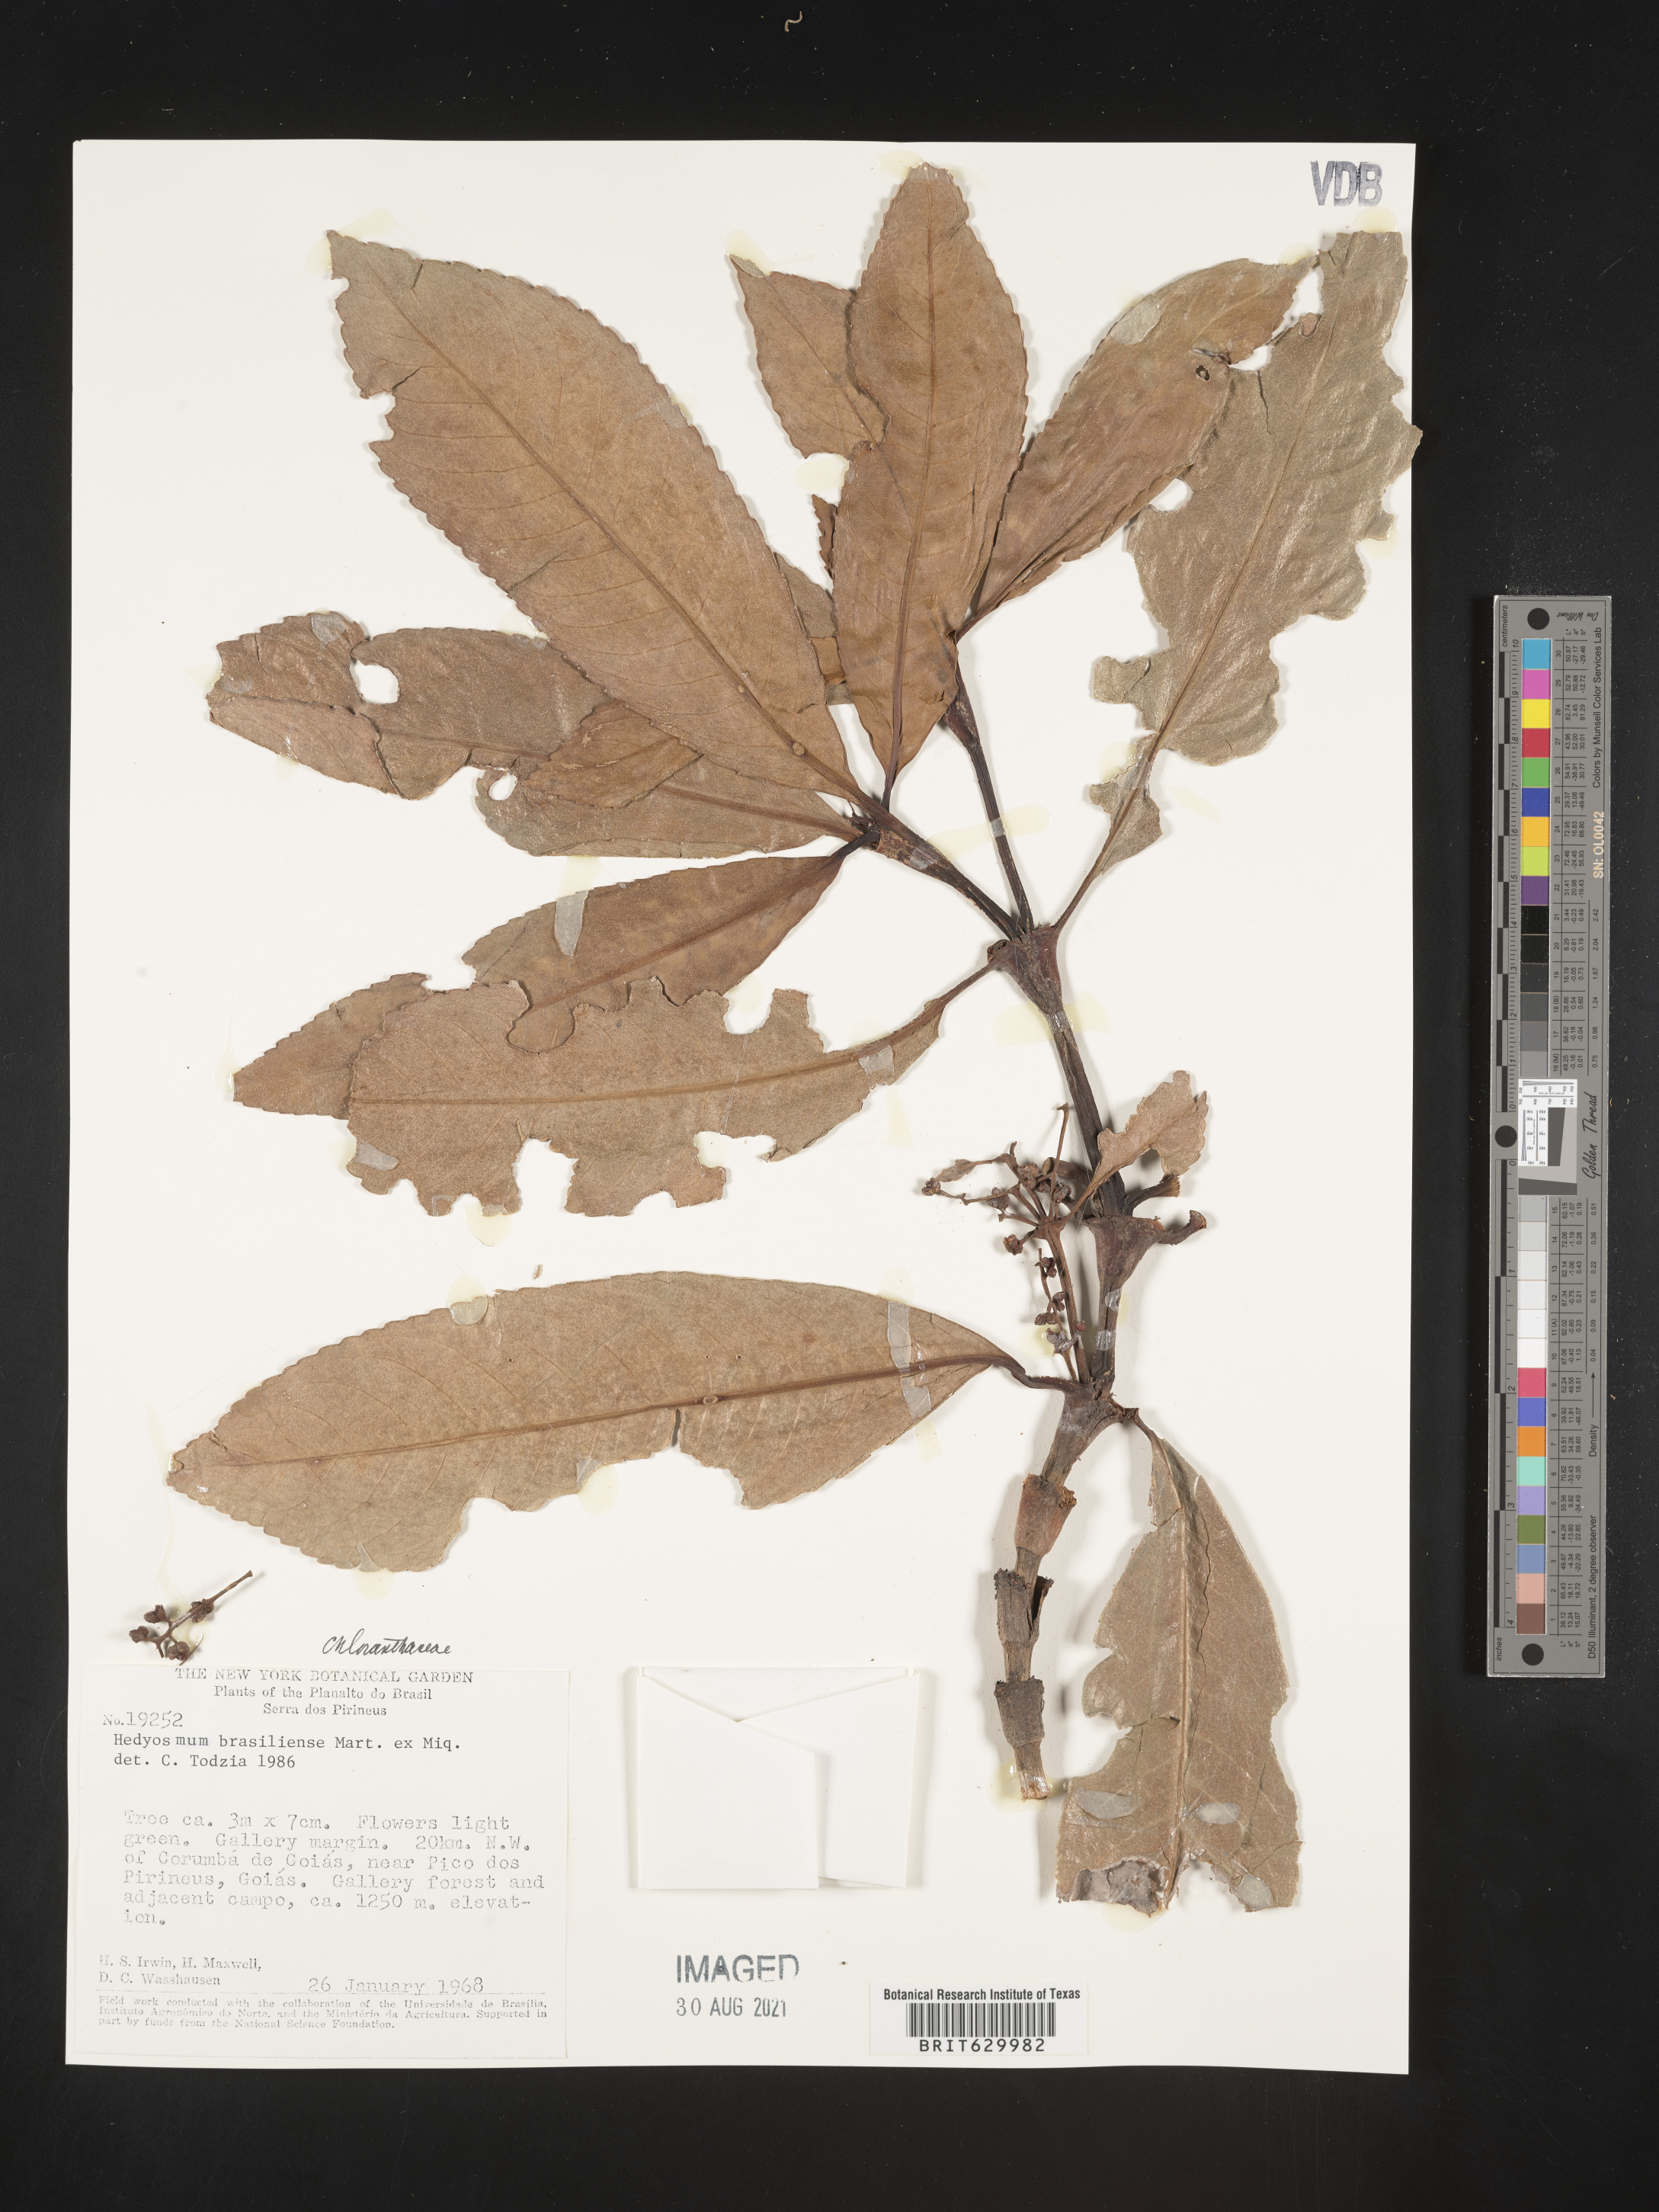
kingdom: Plantae
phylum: Tracheophyta
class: Magnoliopsida
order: Chloranthales
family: Chloranthaceae
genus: Hedyosmum
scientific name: Hedyosmum brasiliense
